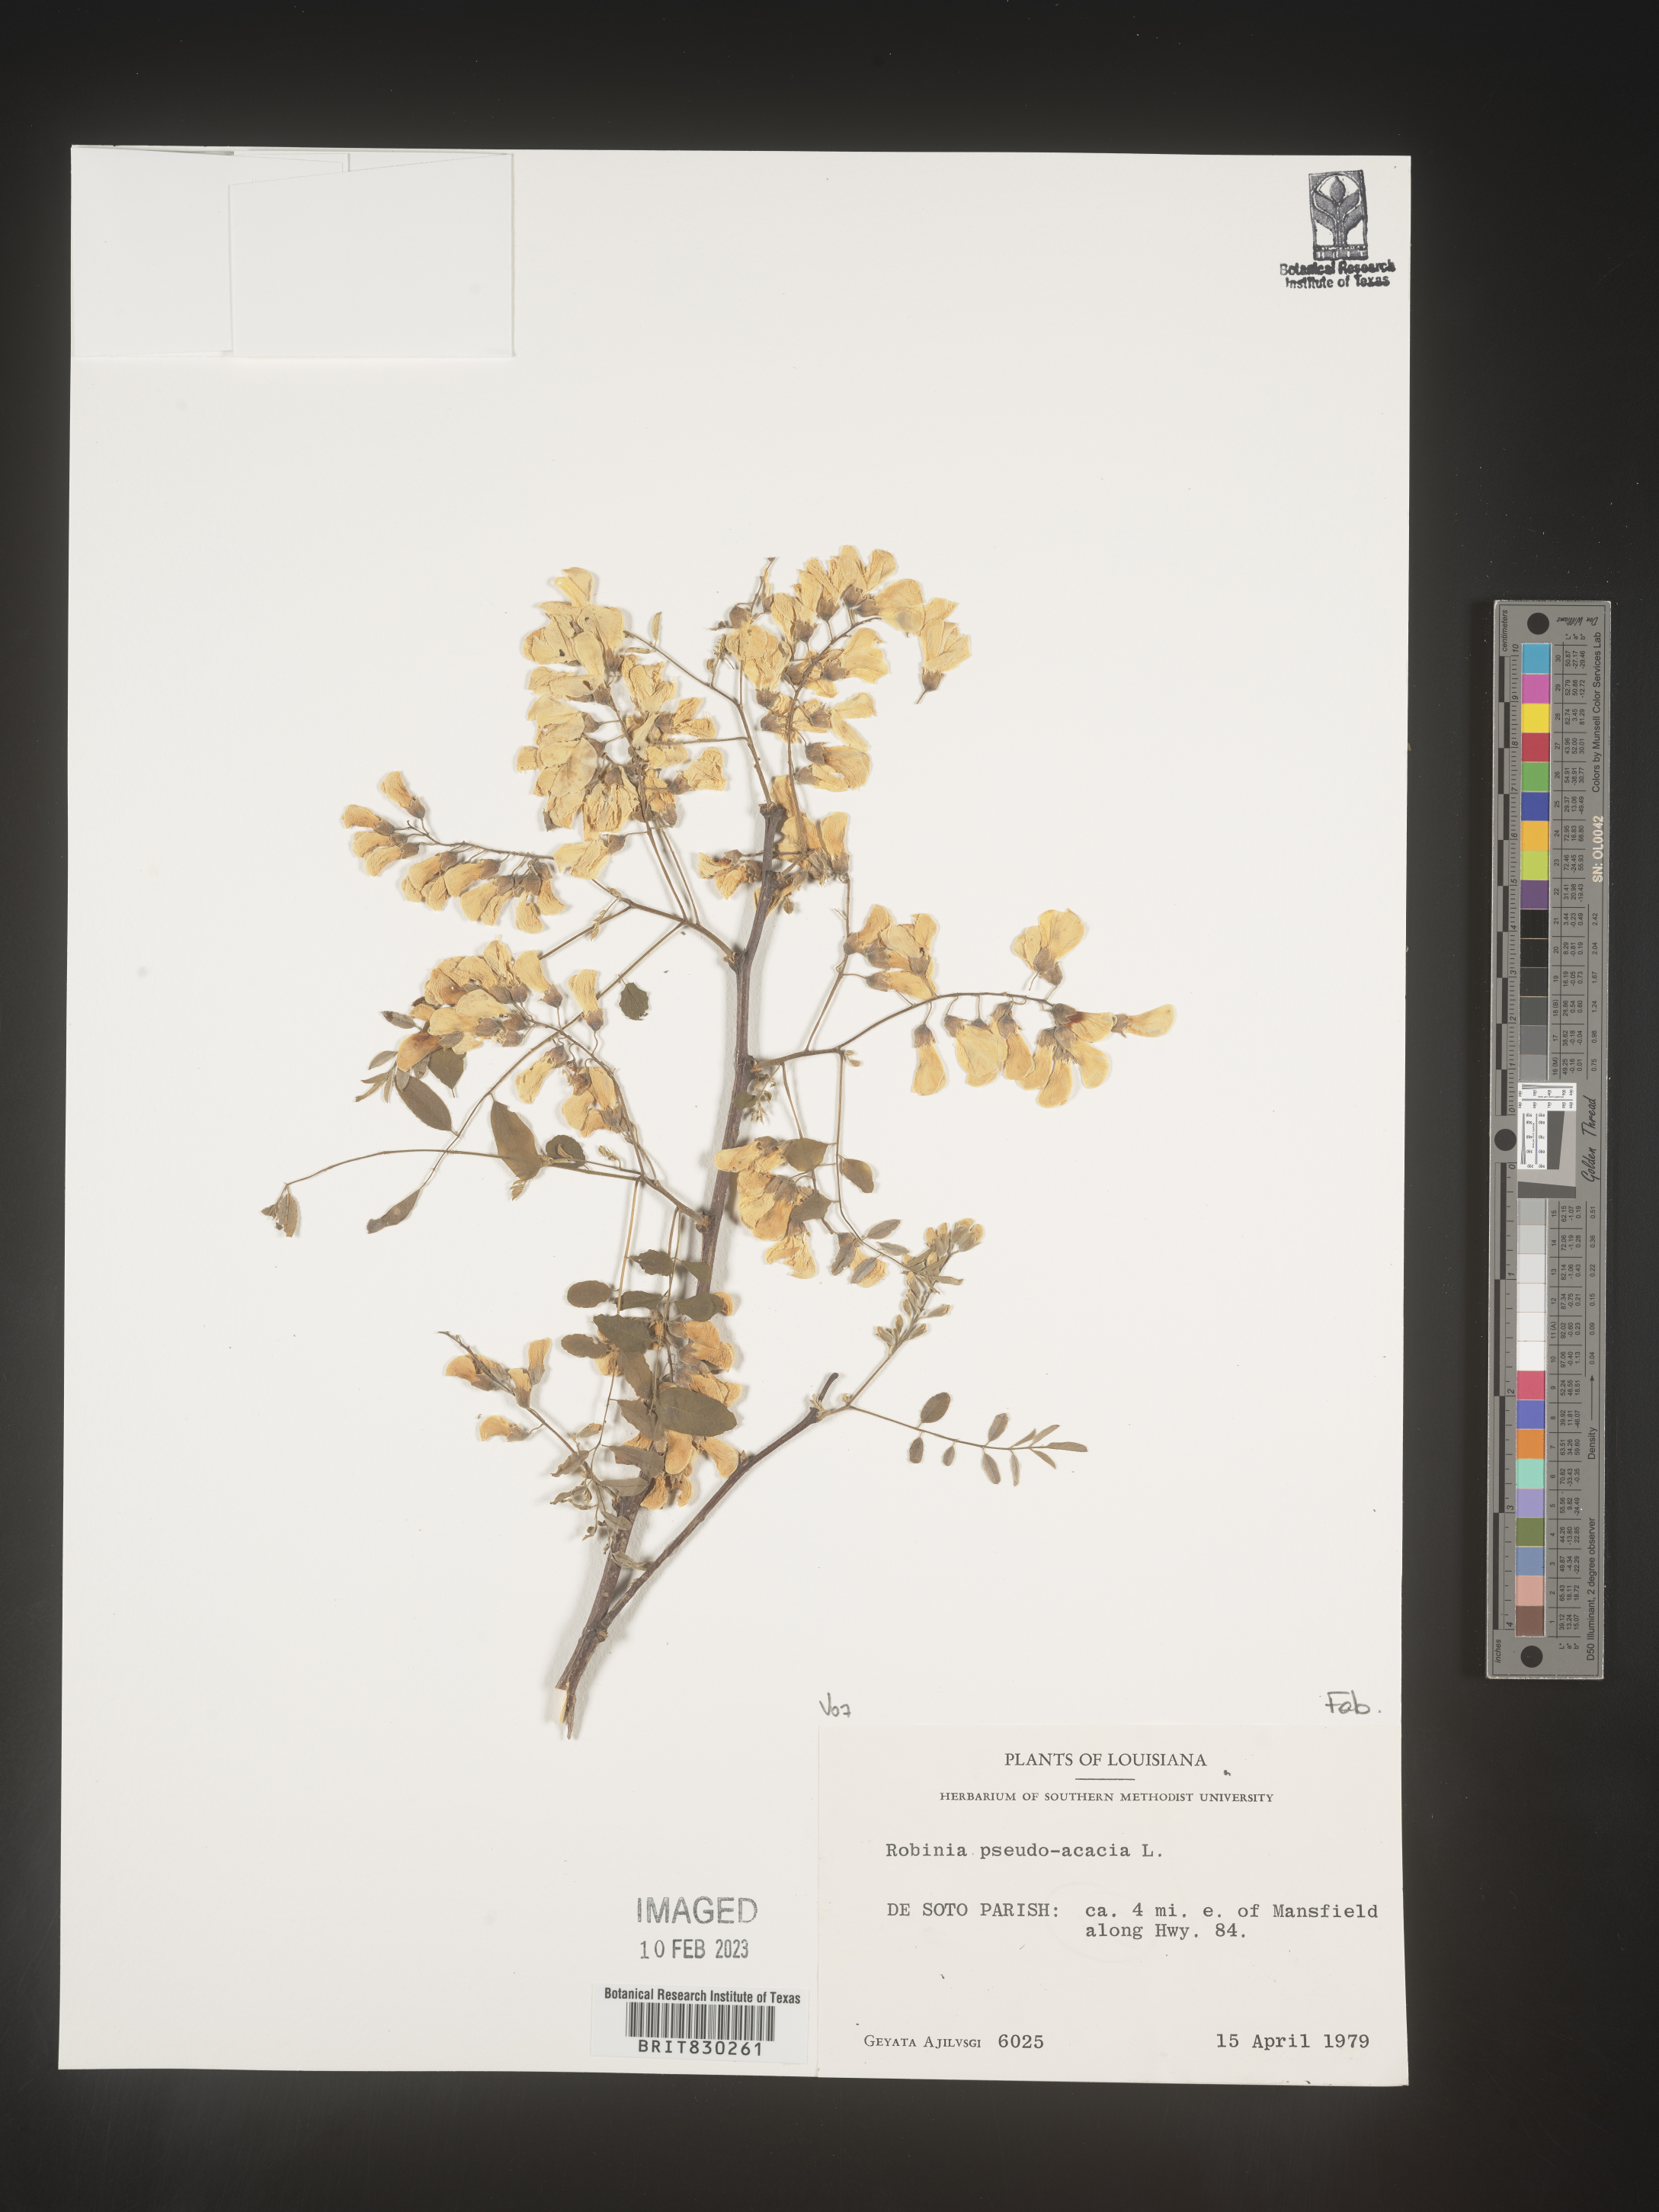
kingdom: Plantae
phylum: Tracheophyta
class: Magnoliopsida
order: Fabales
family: Fabaceae
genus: Robinia
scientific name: Robinia pseudoacacia
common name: Black locust
